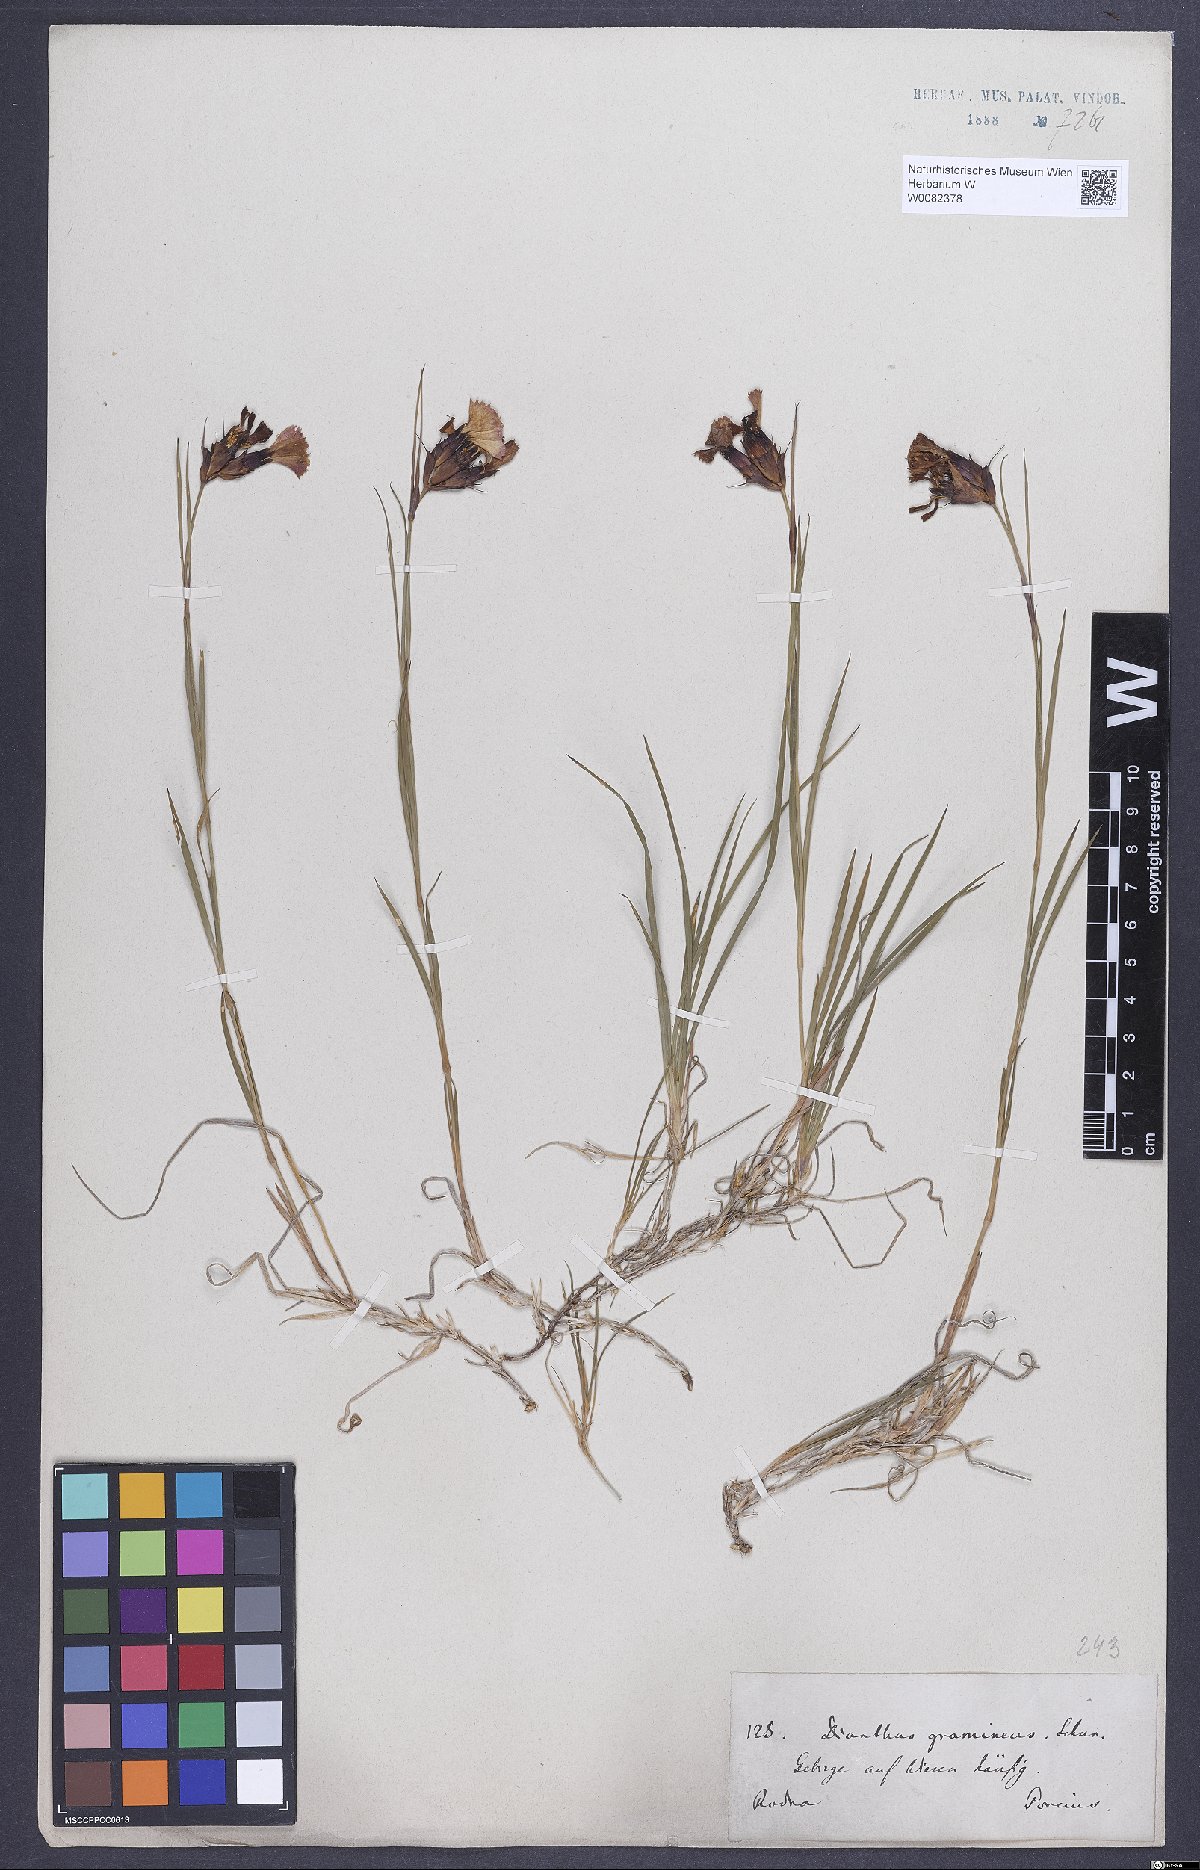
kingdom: Plantae
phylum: Tracheophyta
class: Magnoliopsida
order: Caryophyllales
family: Caryophyllaceae
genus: Dianthus
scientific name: Dianthus carthusianorum
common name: Carthusian pink
